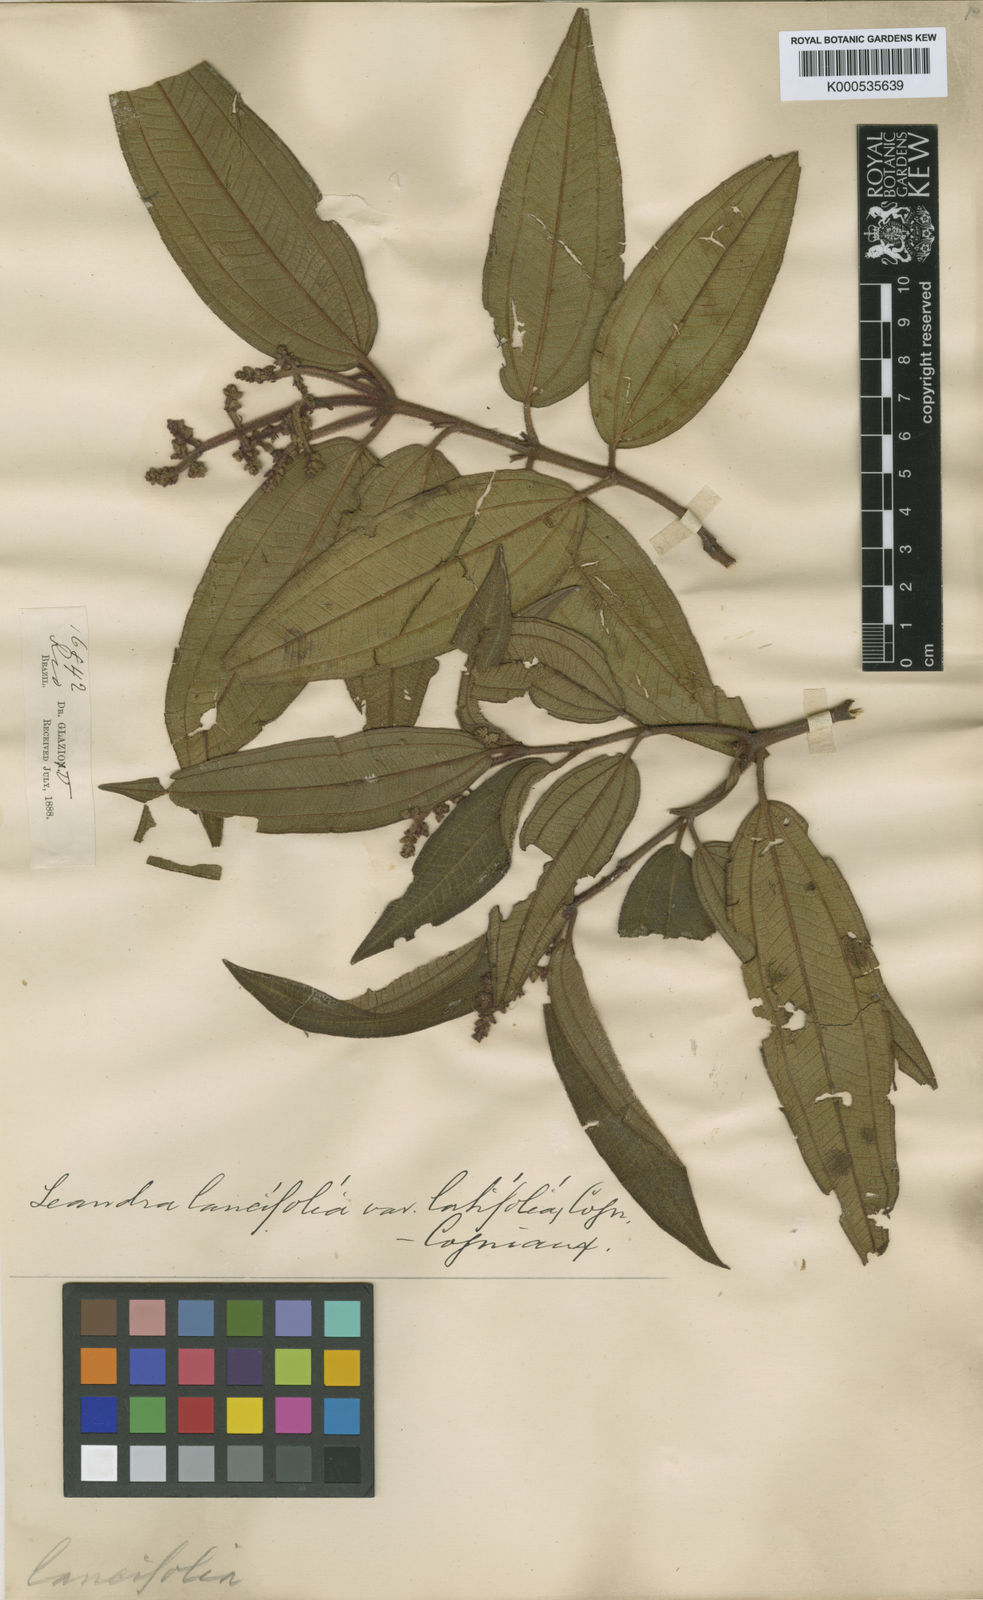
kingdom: Plantae
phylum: Tracheophyta
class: Magnoliopsida
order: Myrtales
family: Melastomataceae
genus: Miconia
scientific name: Miconia lealancifolia
